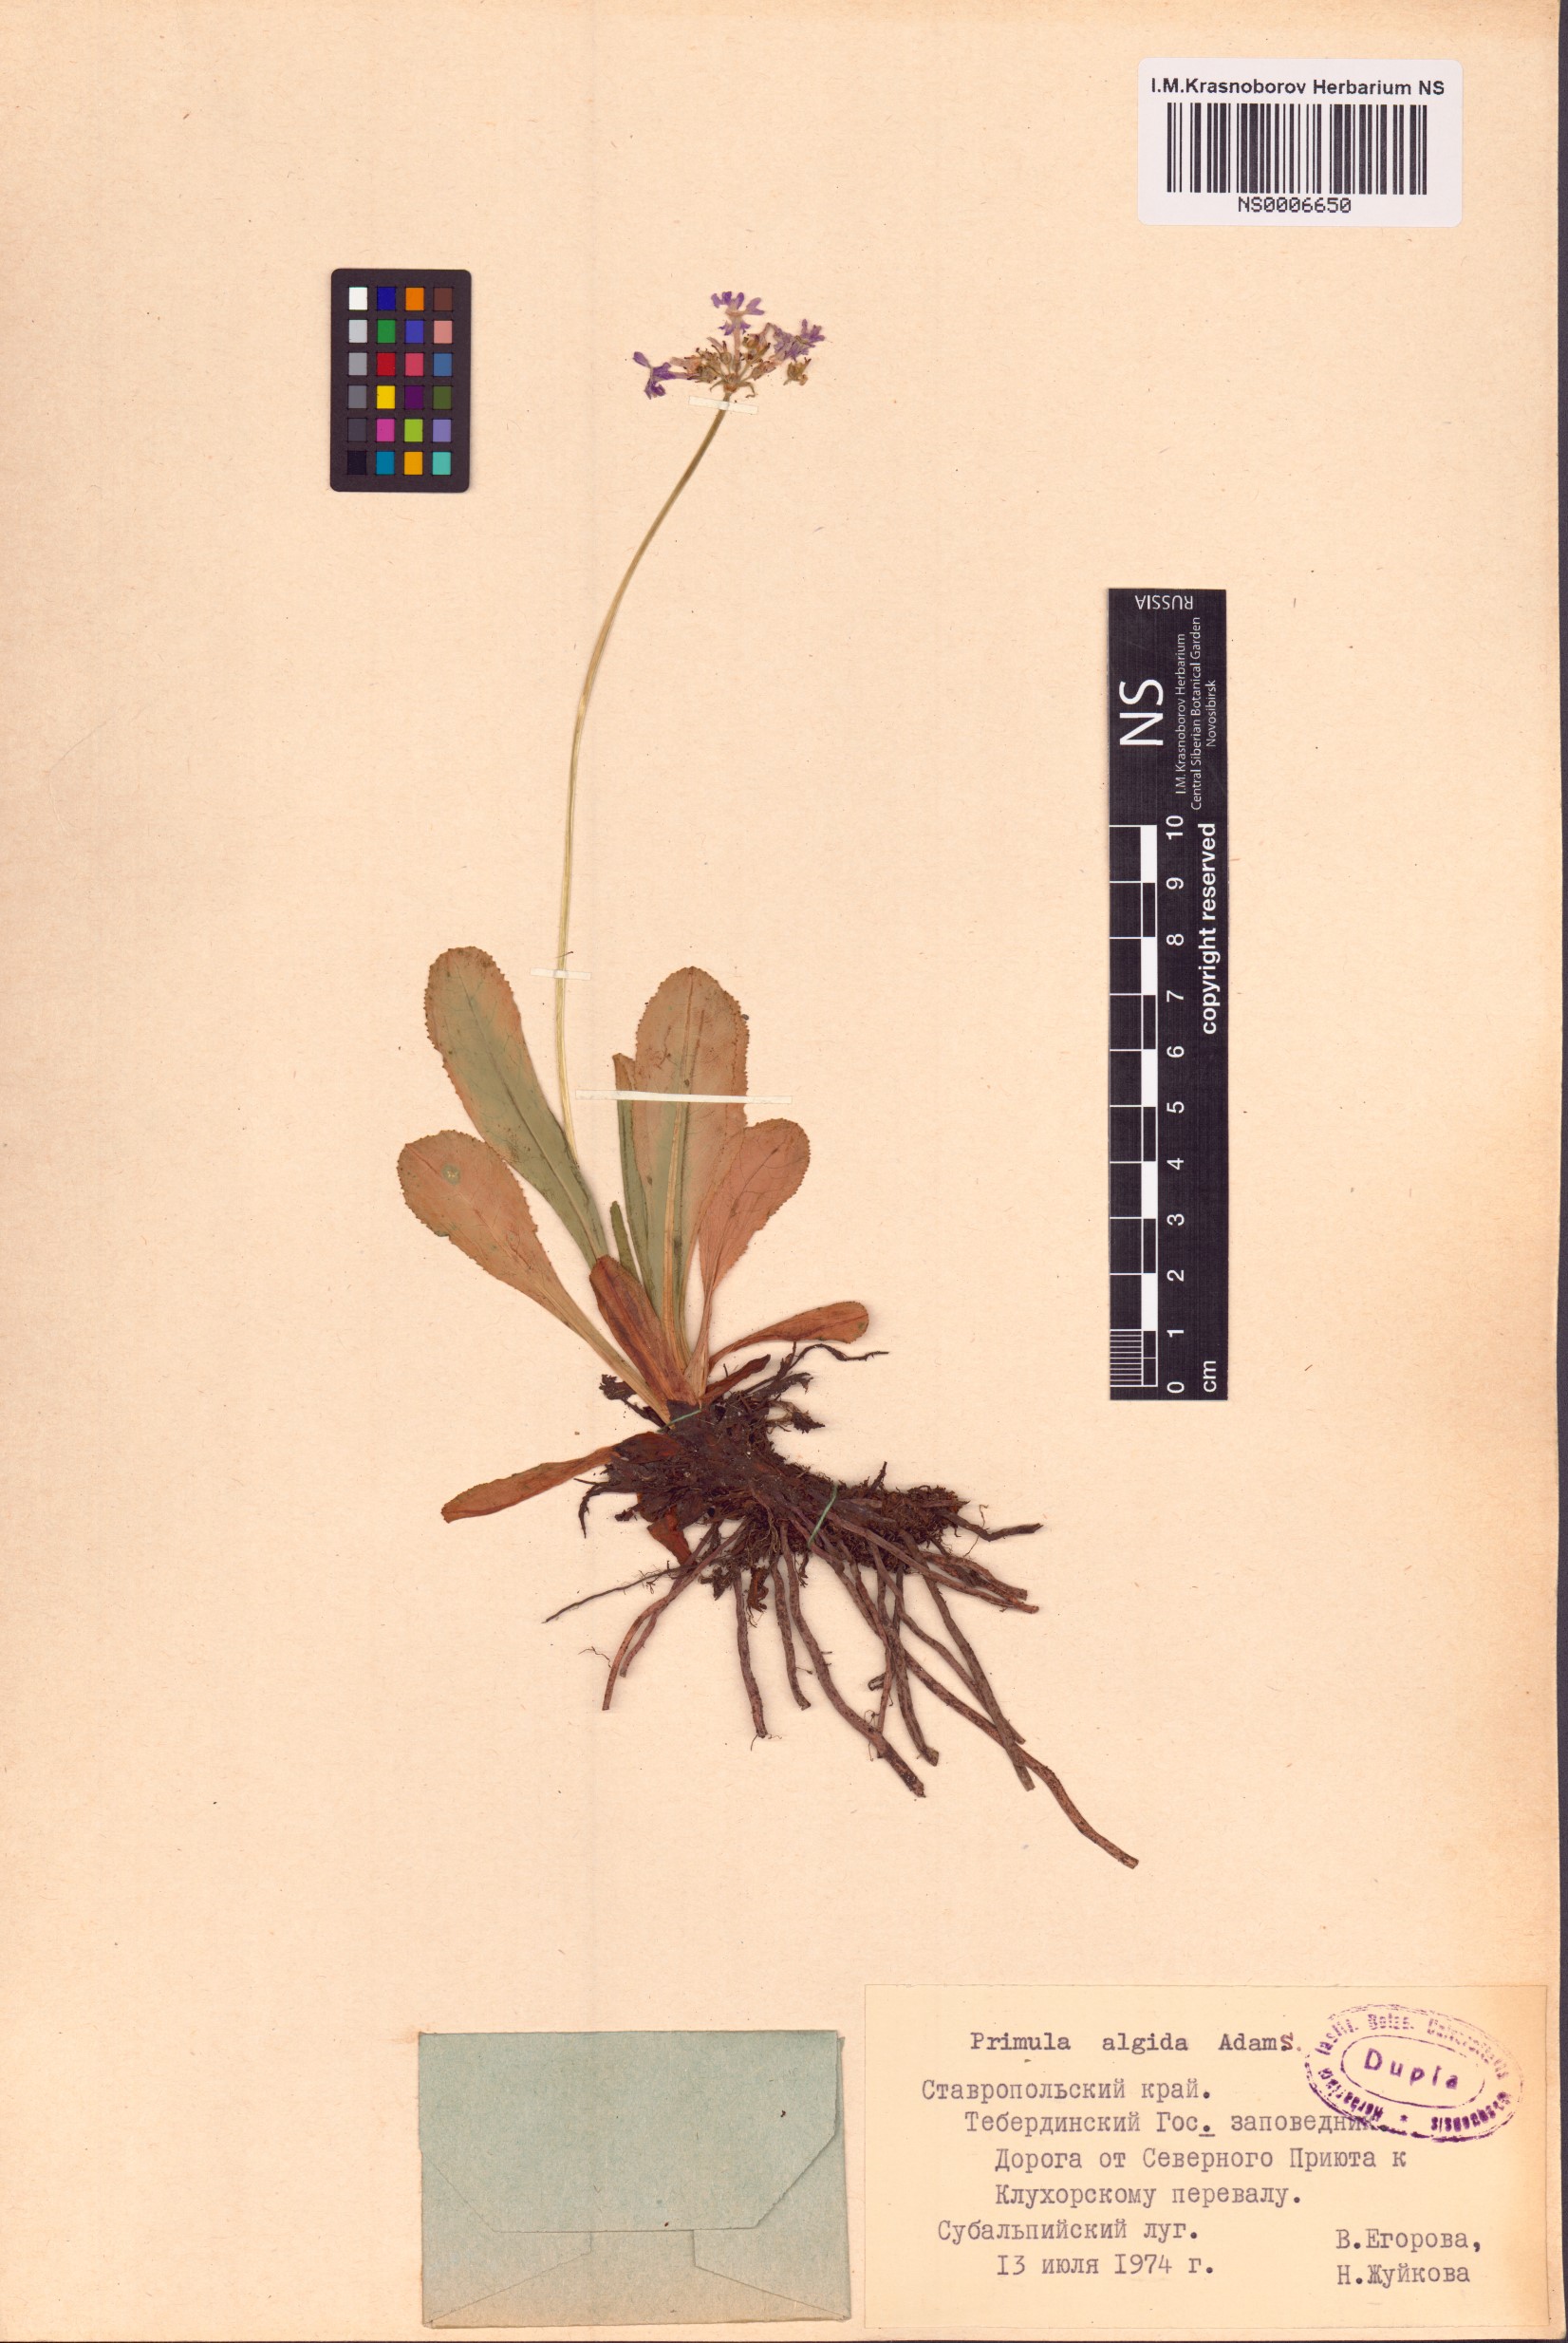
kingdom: Plantae
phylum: Tracheophyta
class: Magnoliopsida
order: Ericales
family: Primulaceae
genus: Primula
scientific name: Primula algida
